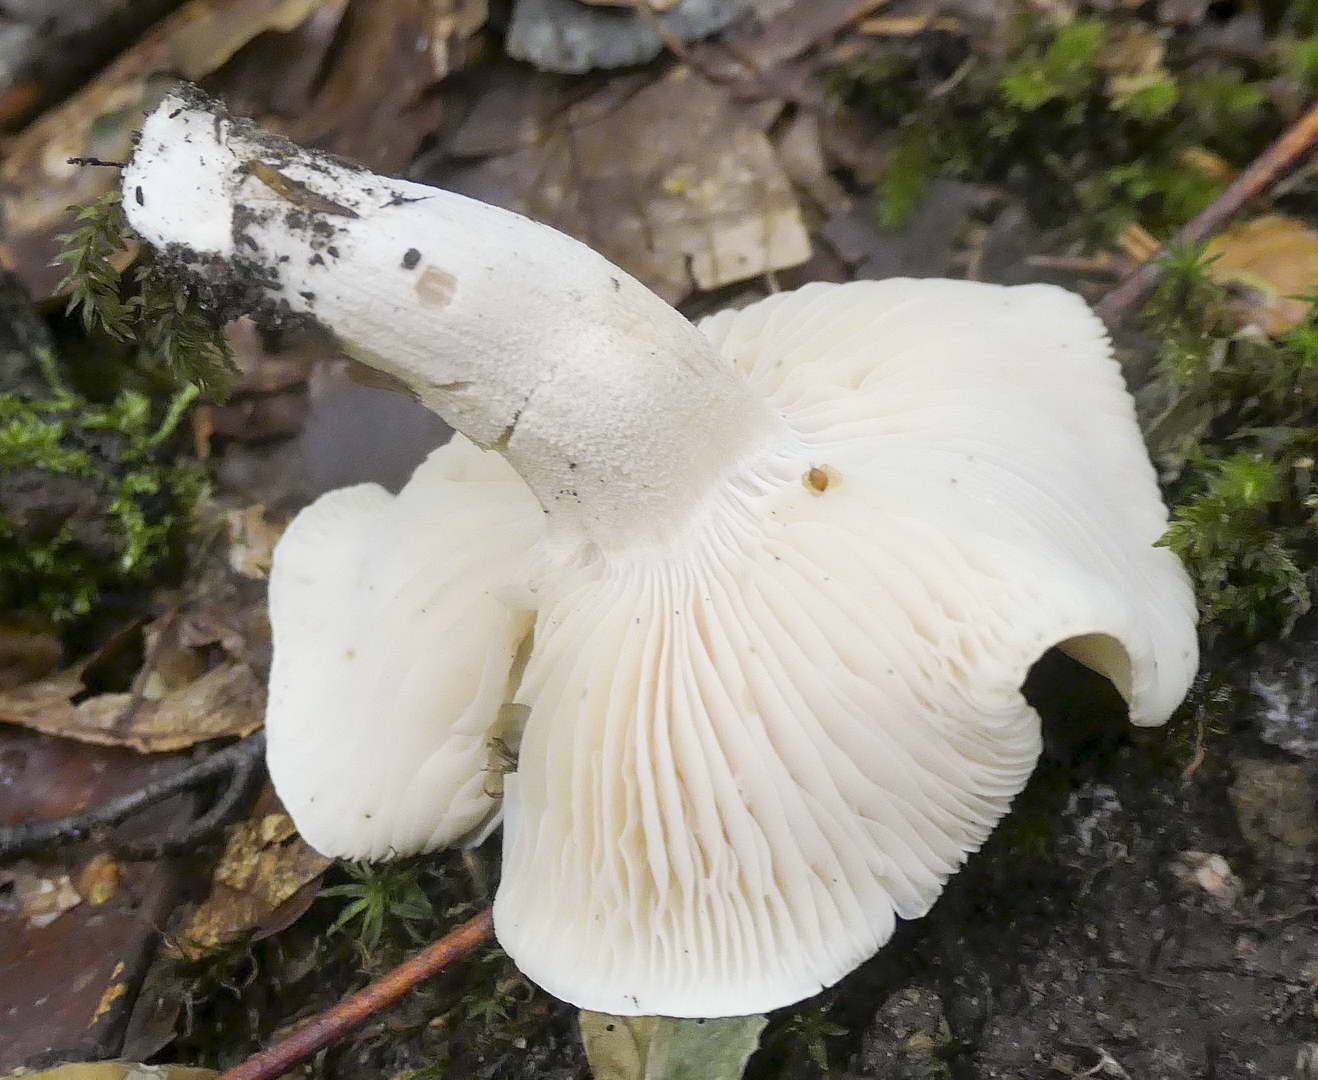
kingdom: Fungi
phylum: Basidiomycota
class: Agaricomycetes
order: Agaricales
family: Hygrophoraceae
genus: Hygrophorus
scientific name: Hygrophorus penarius
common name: spiselig sneglehat
